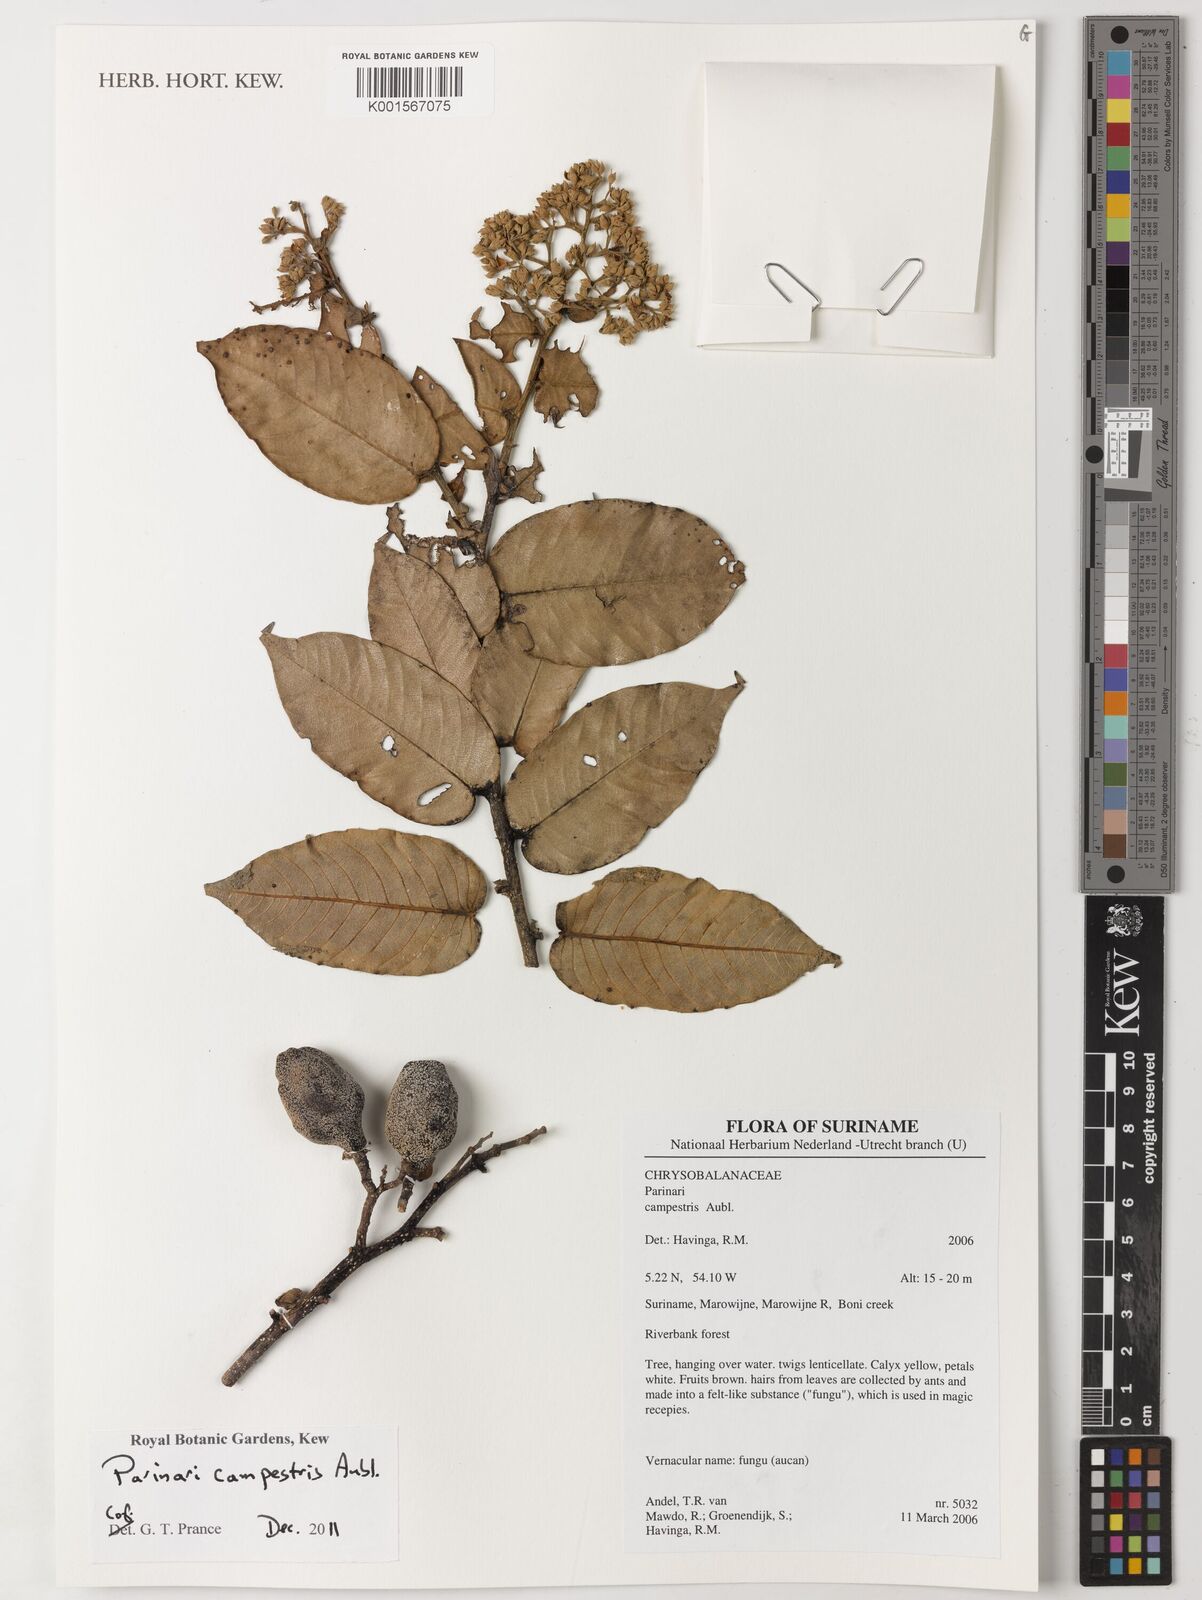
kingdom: Plantae
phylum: Tracheophyta
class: Magnoliopsida
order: Malpighiales
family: Chrysobalanaceae
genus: Parinari
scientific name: Parinari campestris
